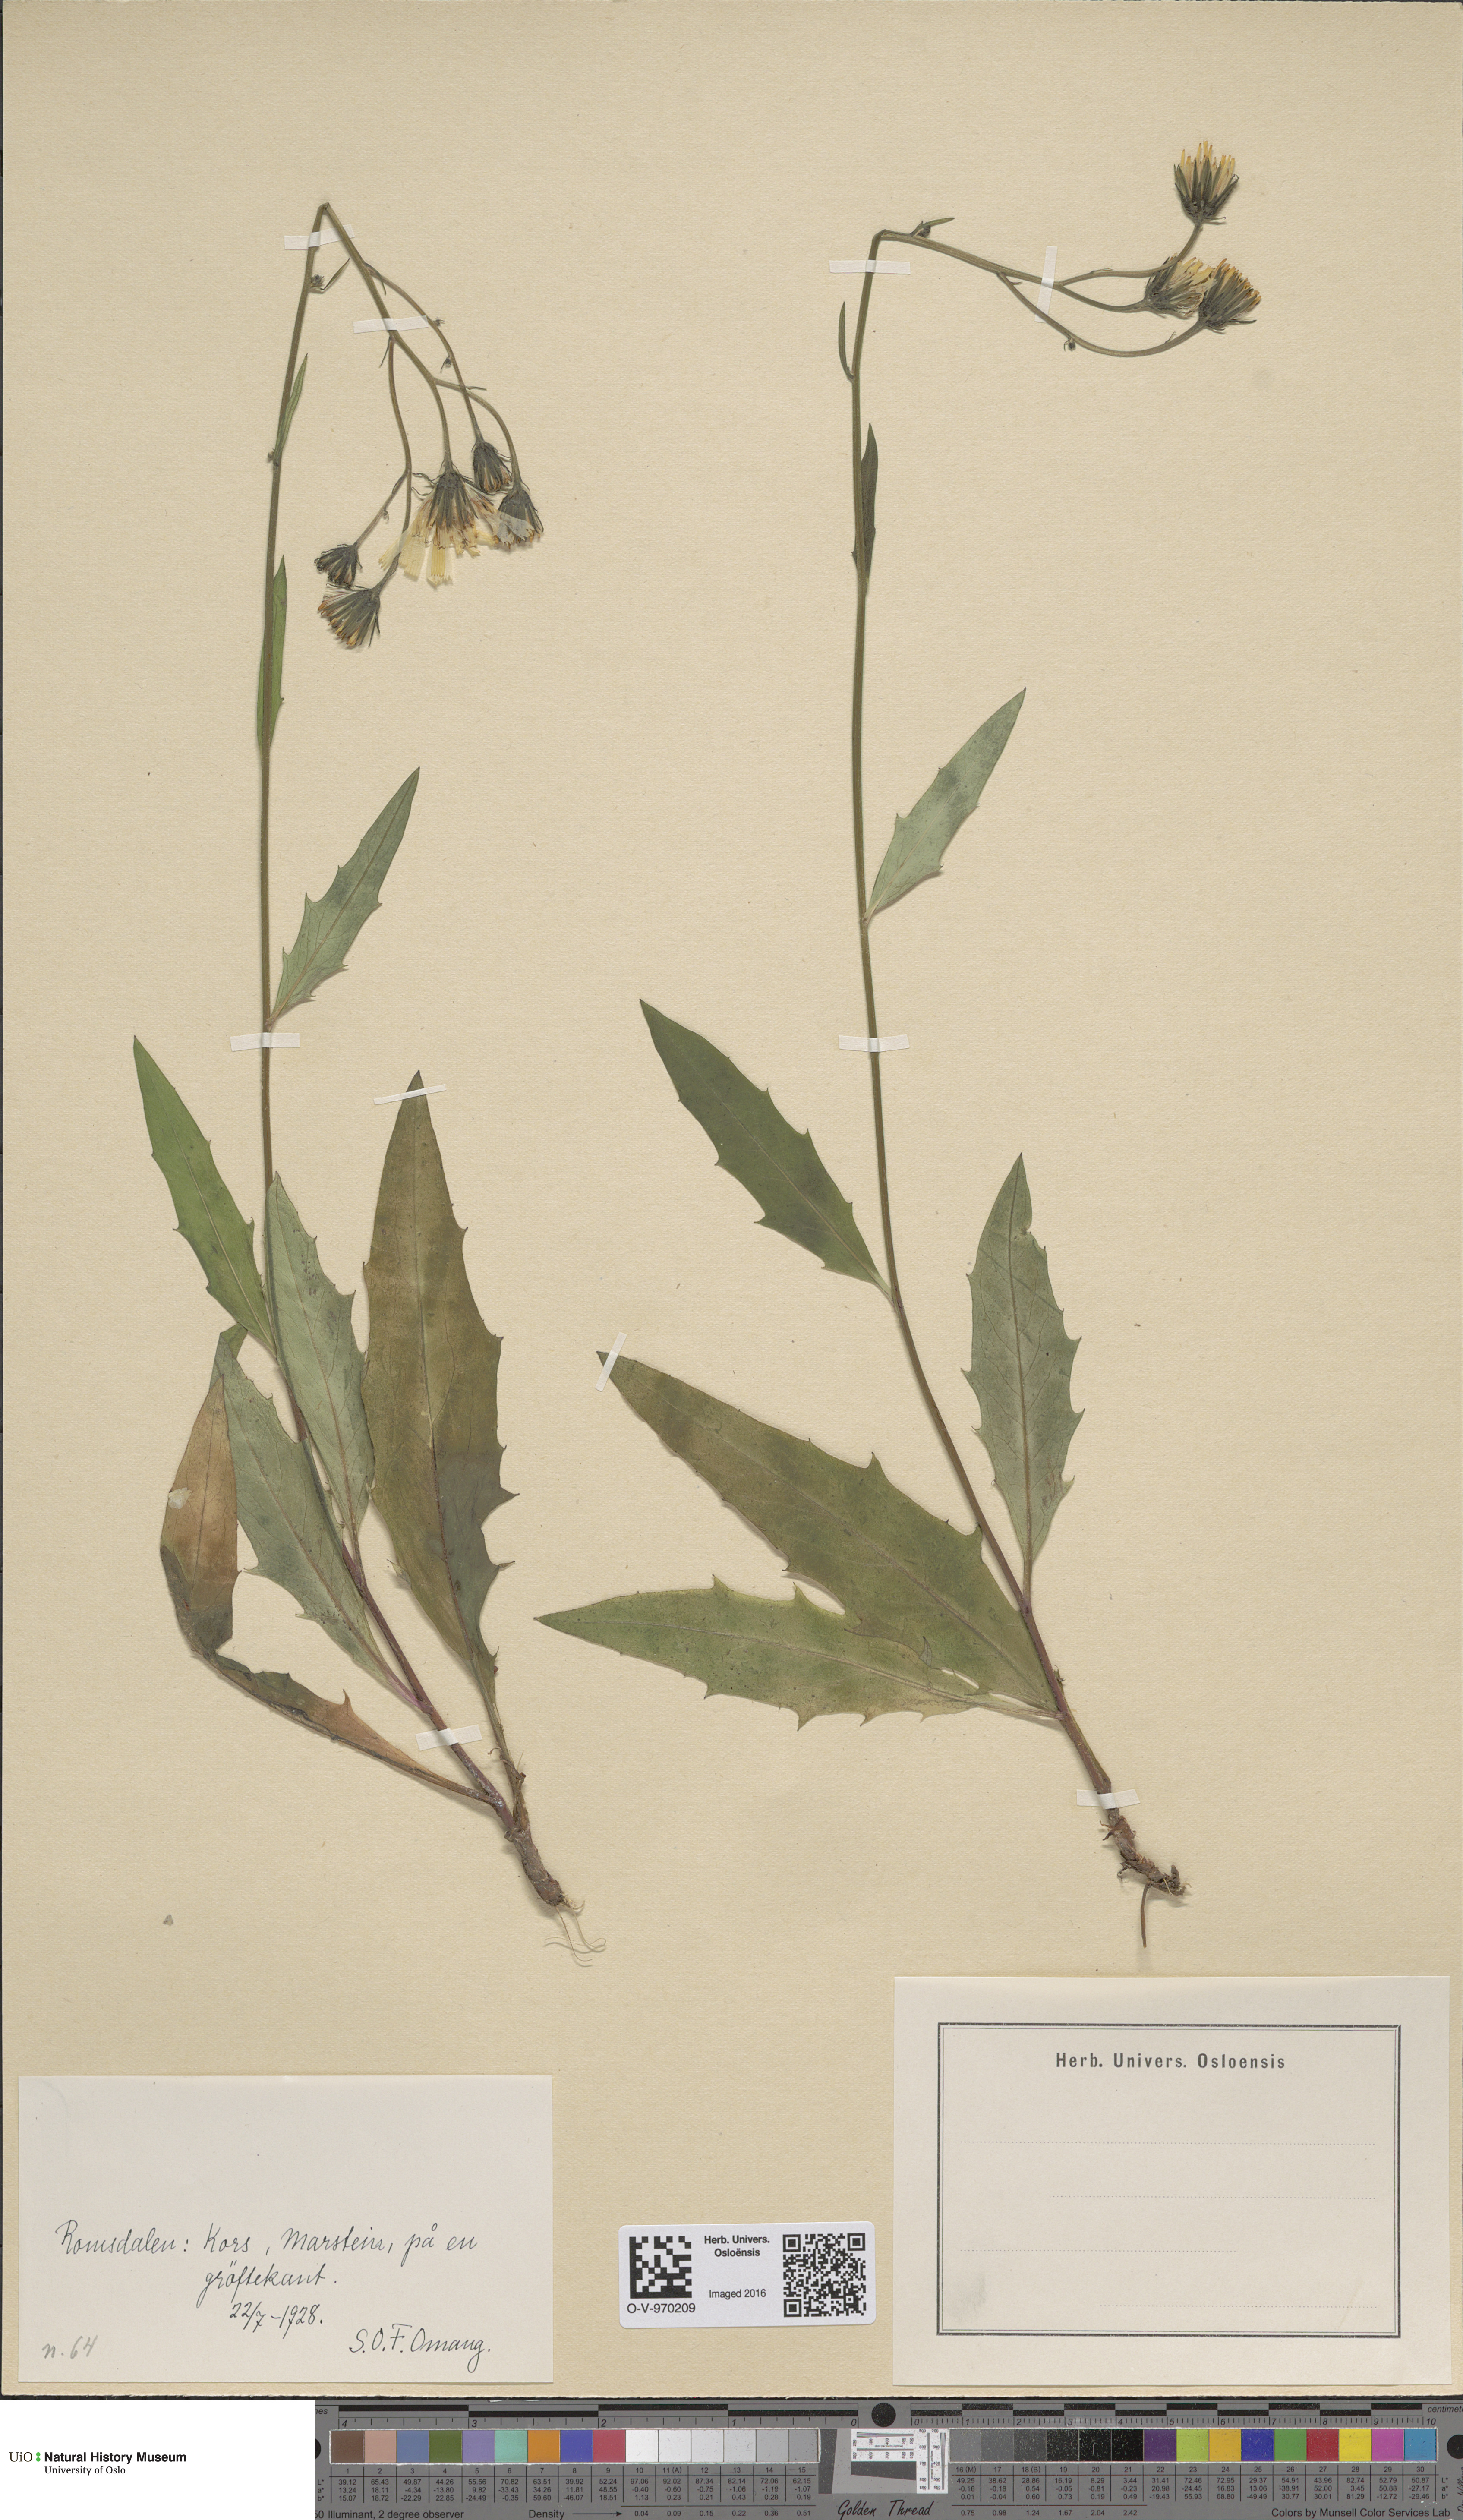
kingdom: Plantae
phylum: Tracheophyta
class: Magnoliopsida
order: Asterales
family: Asteraceae
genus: Hieracium
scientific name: Hieracium
